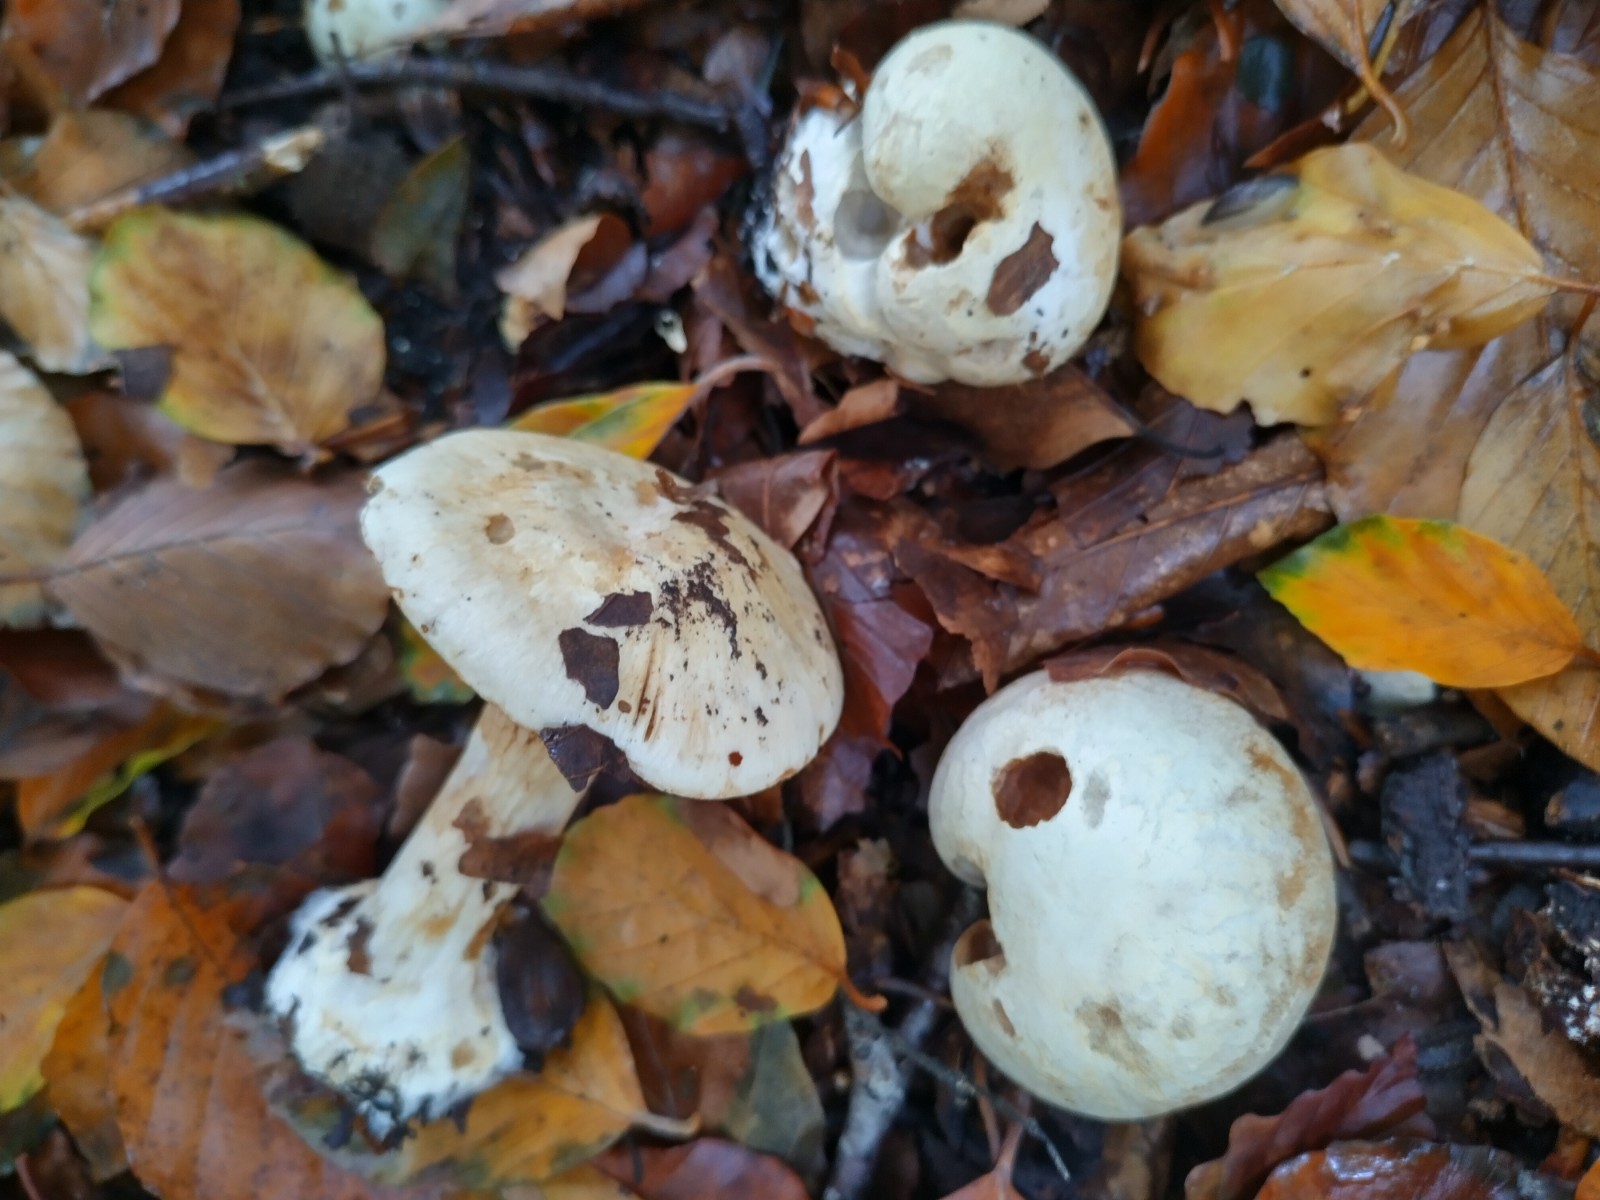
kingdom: Fungi
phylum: Basidiomycota
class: Agaricomycetes
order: Agaricales
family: Cortinariaceae
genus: Cortinarius
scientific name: Cortinarius foetens
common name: stribet slørhat
